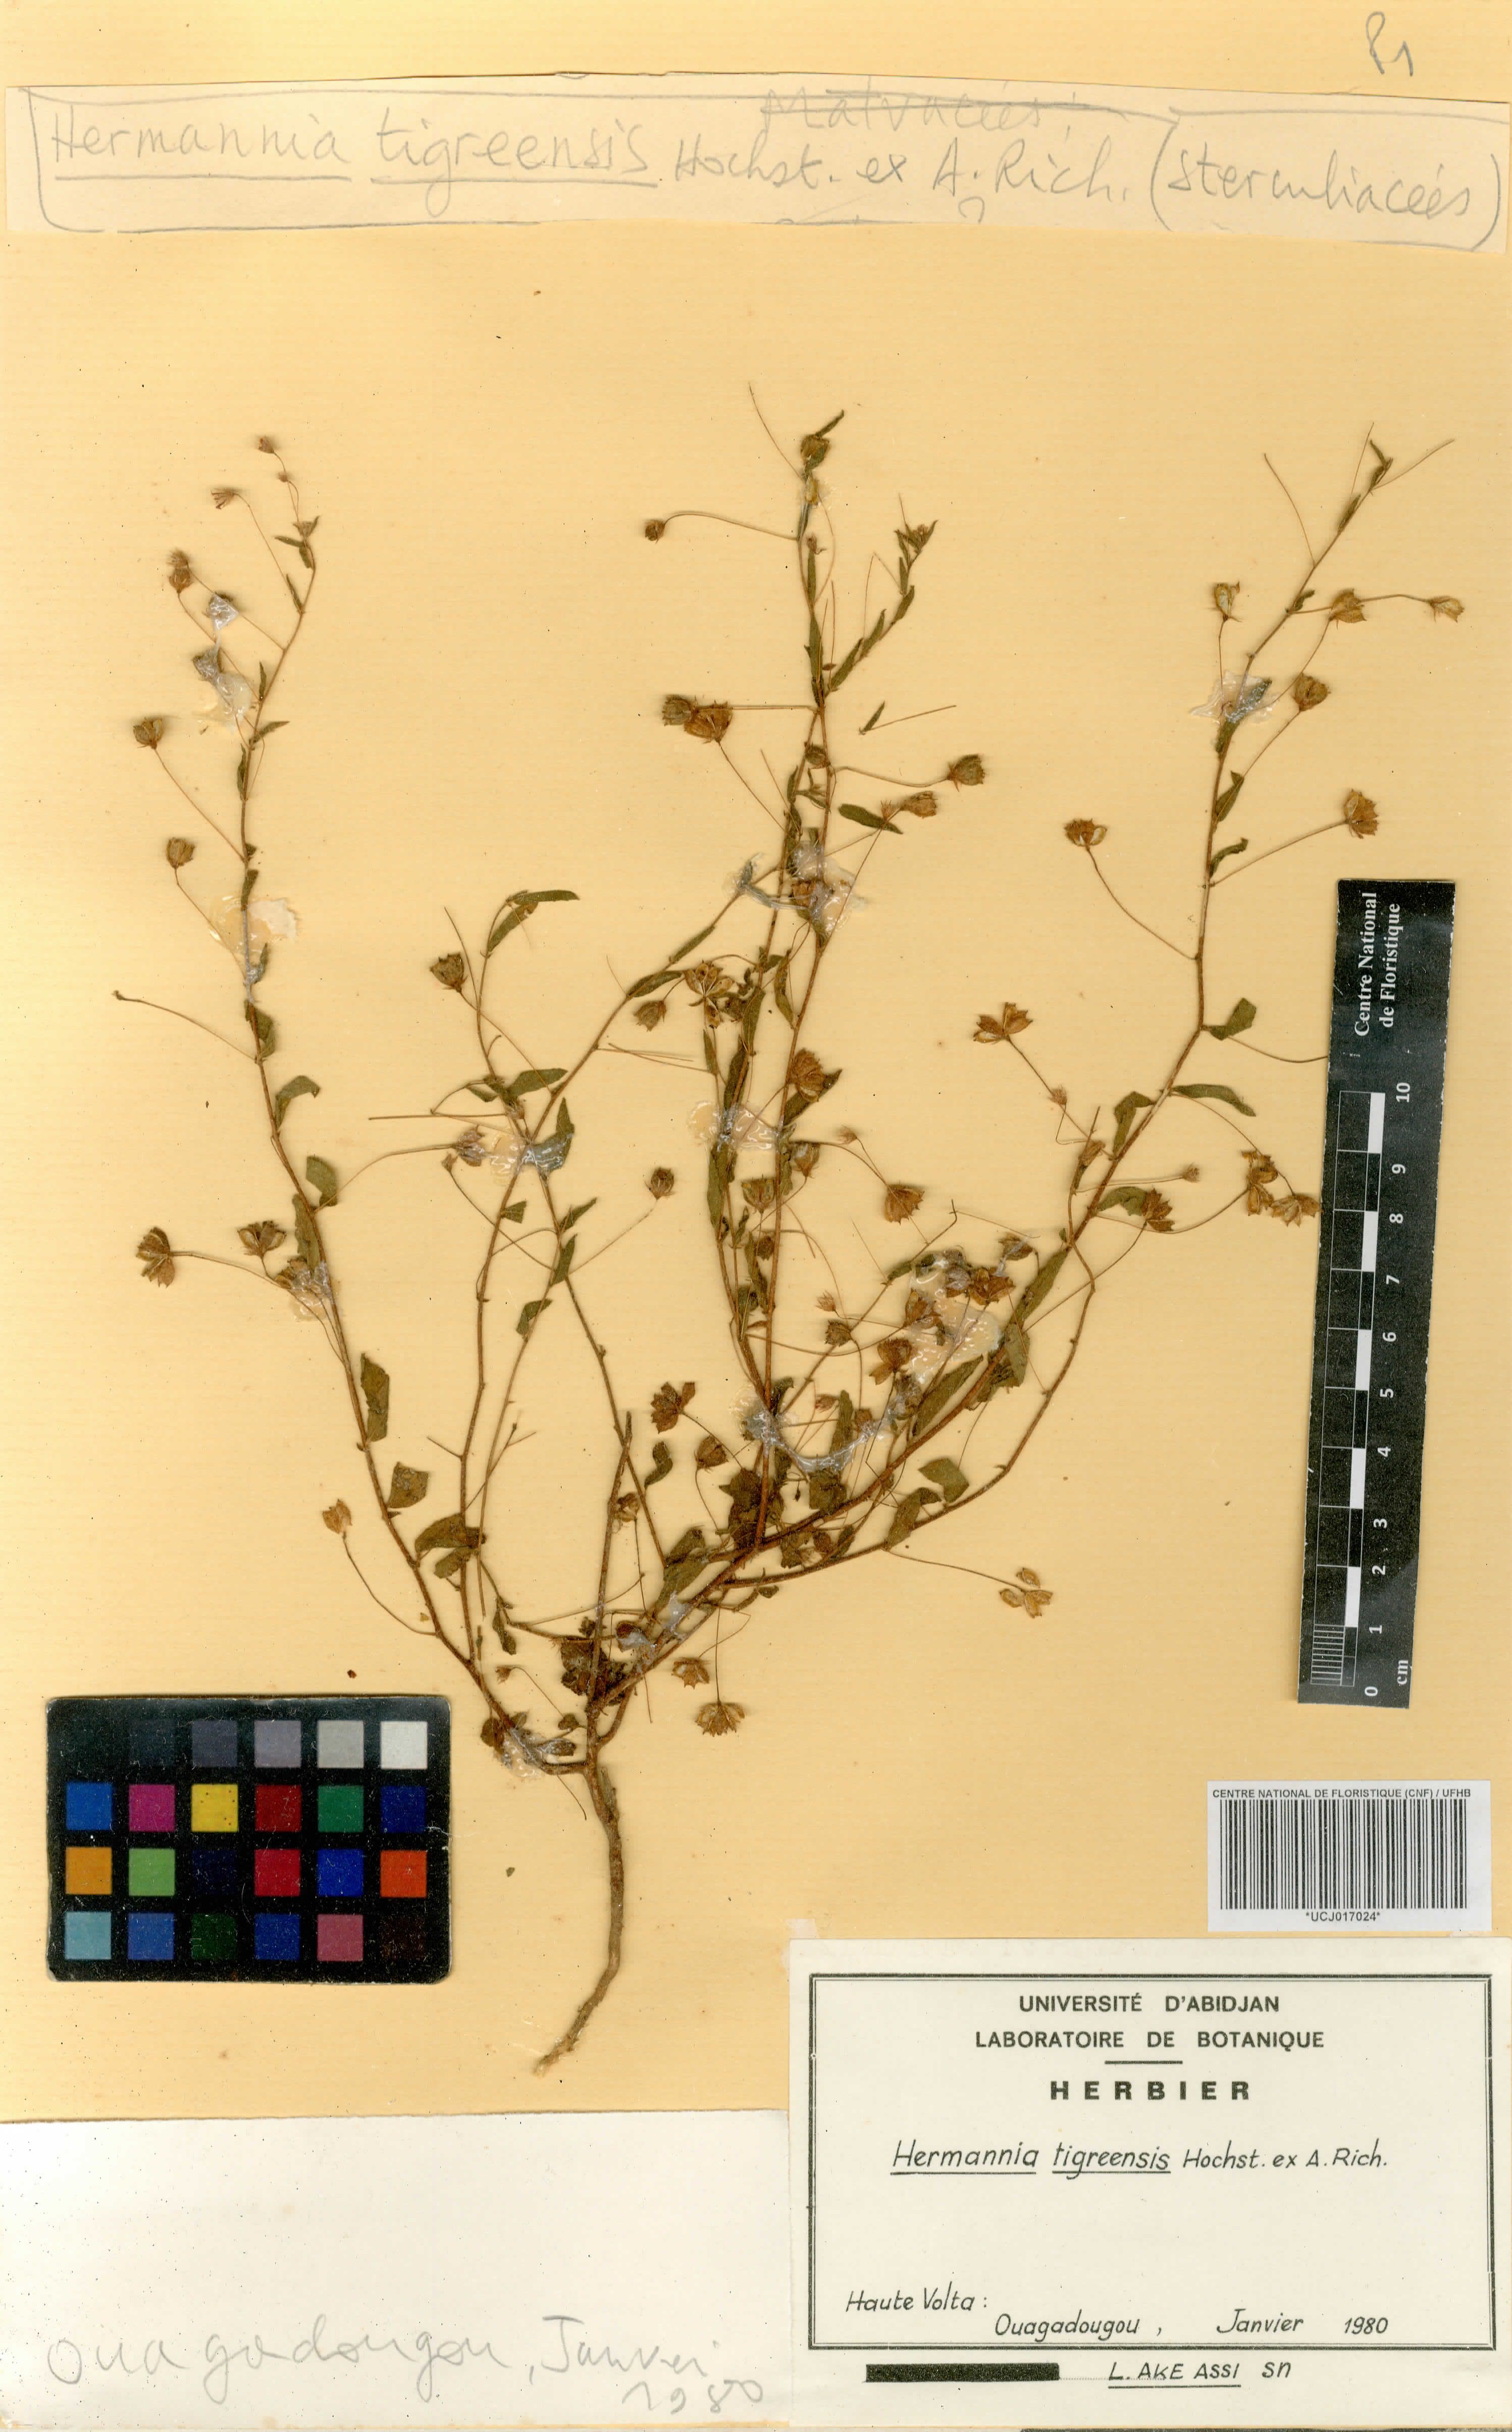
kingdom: Plantae
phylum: Tracheophyta
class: Magnoliopsida
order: Malvales
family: Malvaceae
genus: Hermannia
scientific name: Hermannia tigreensis
